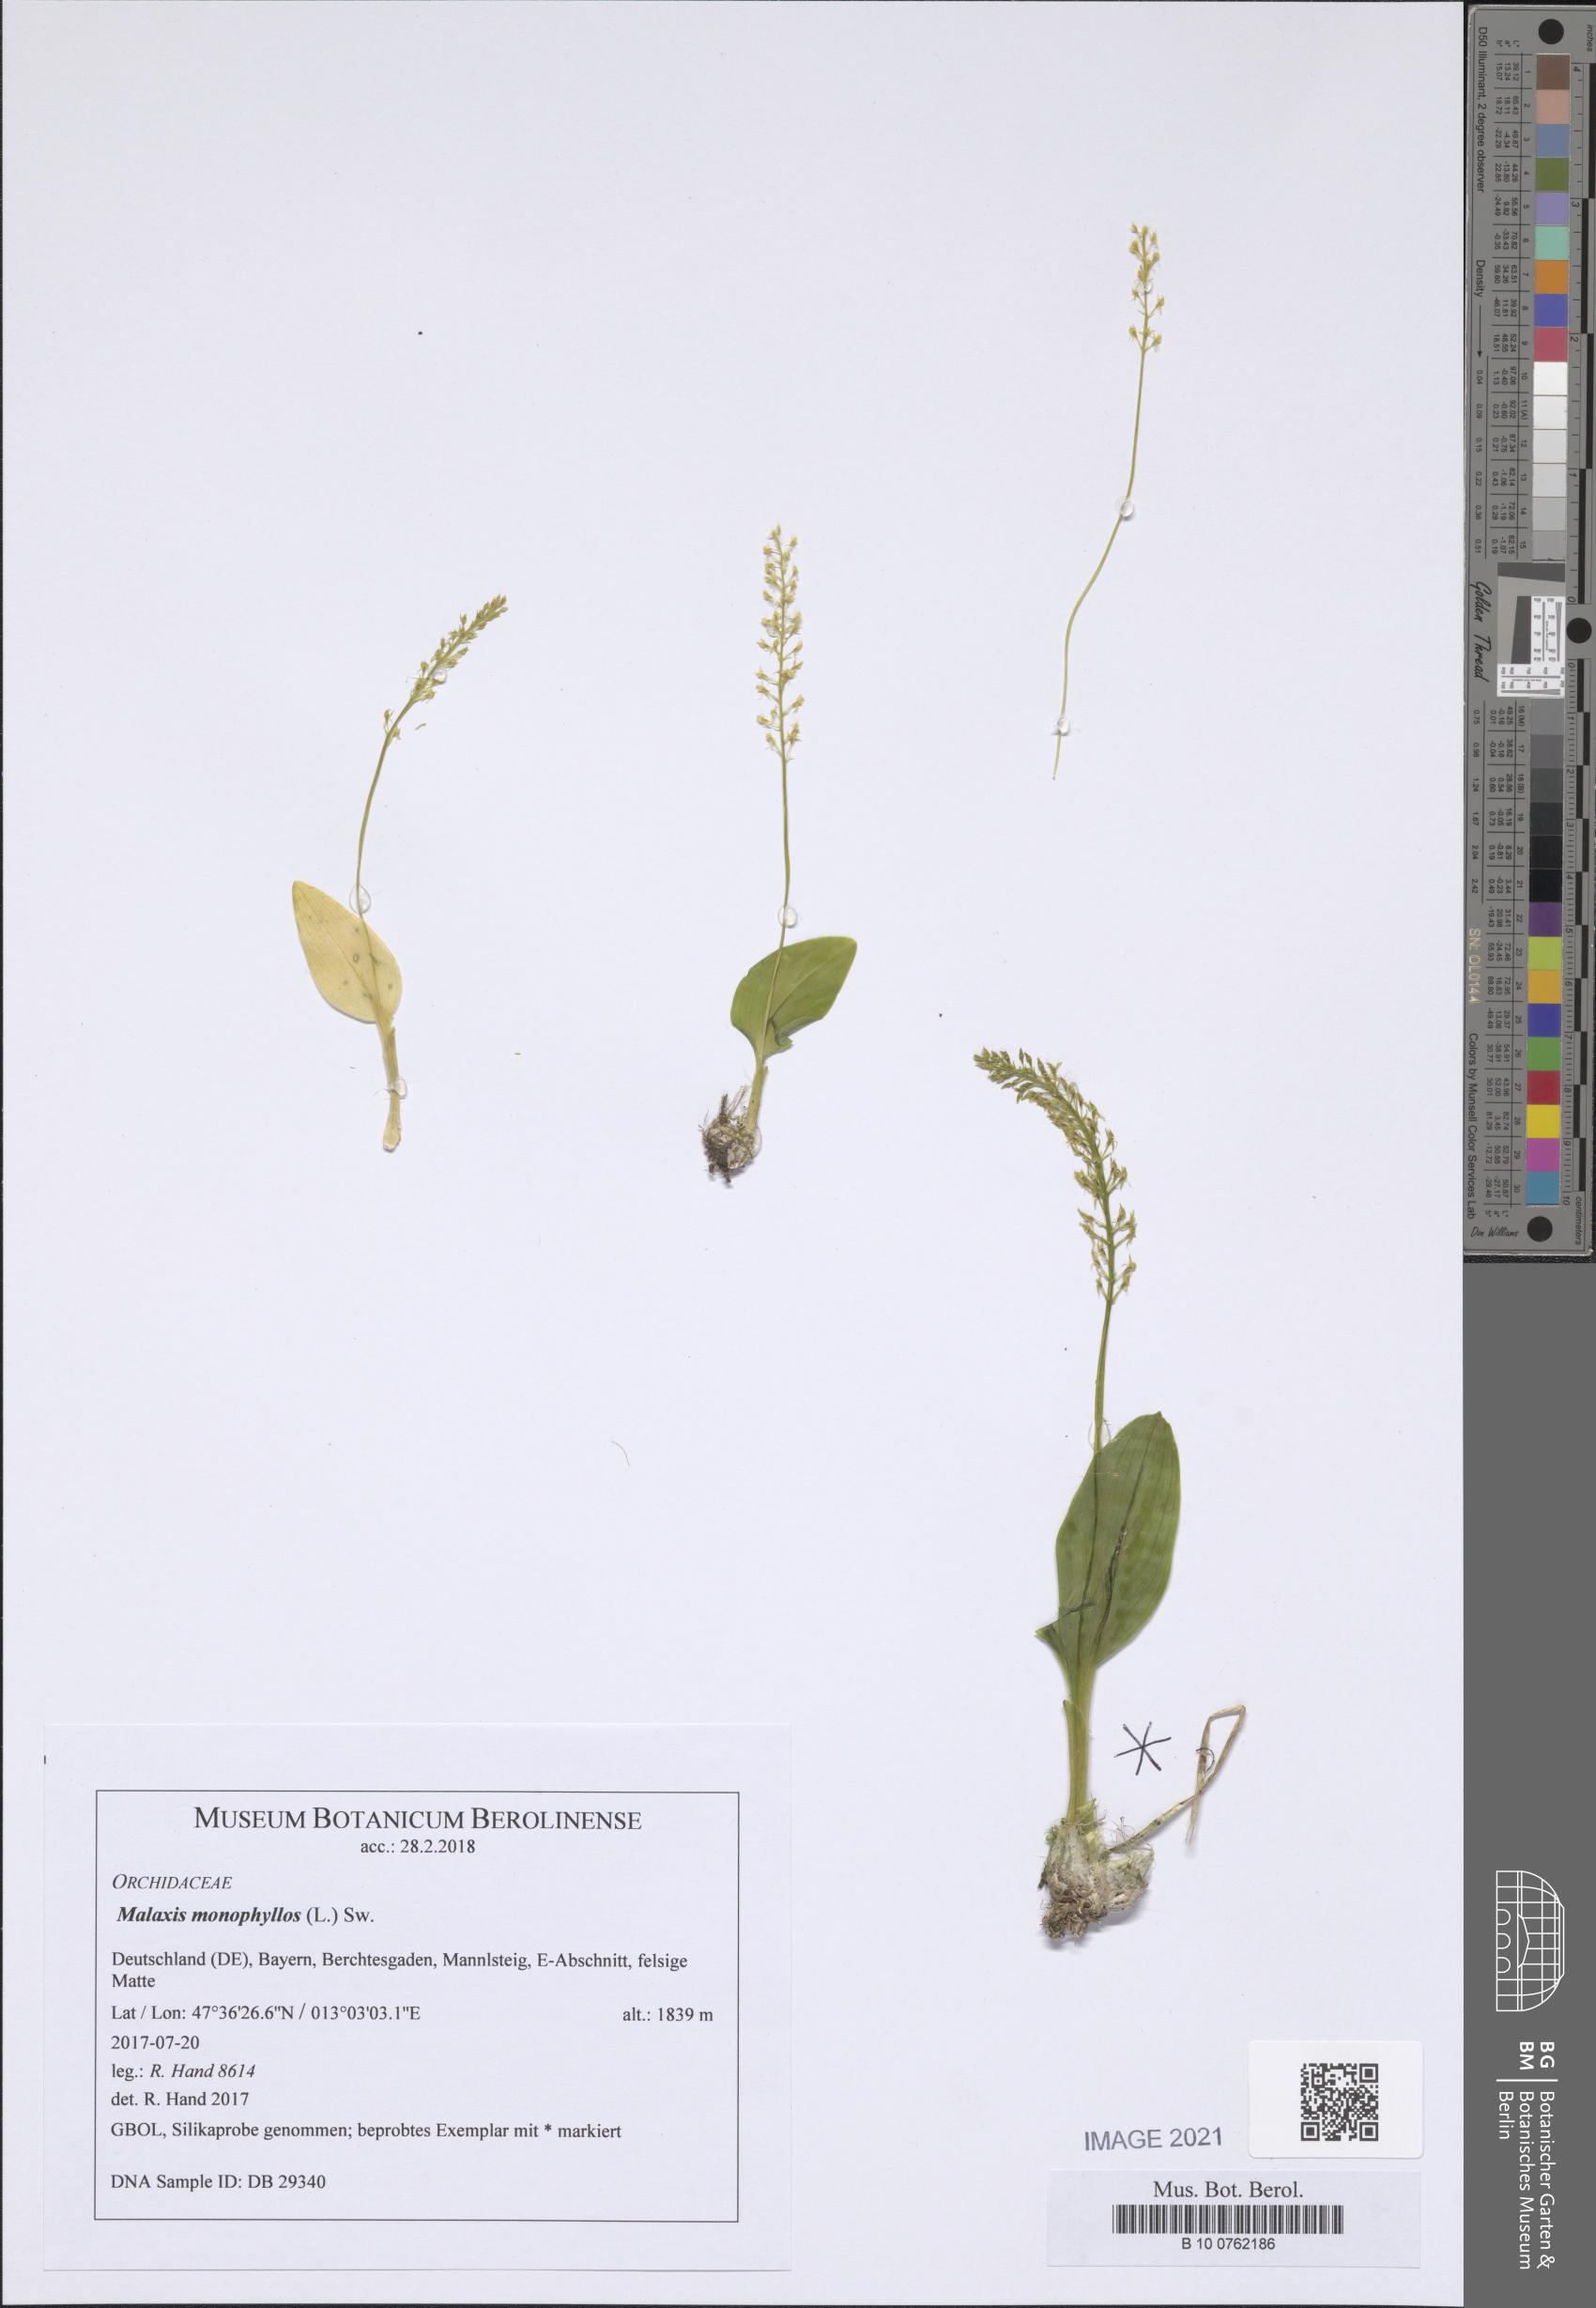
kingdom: Plantae
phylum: Tracheophyta
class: Liliopsida
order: Asparagales
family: Orchidaceae
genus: Malaxis
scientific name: Malaxis monophyllos
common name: White adder's-mouth
